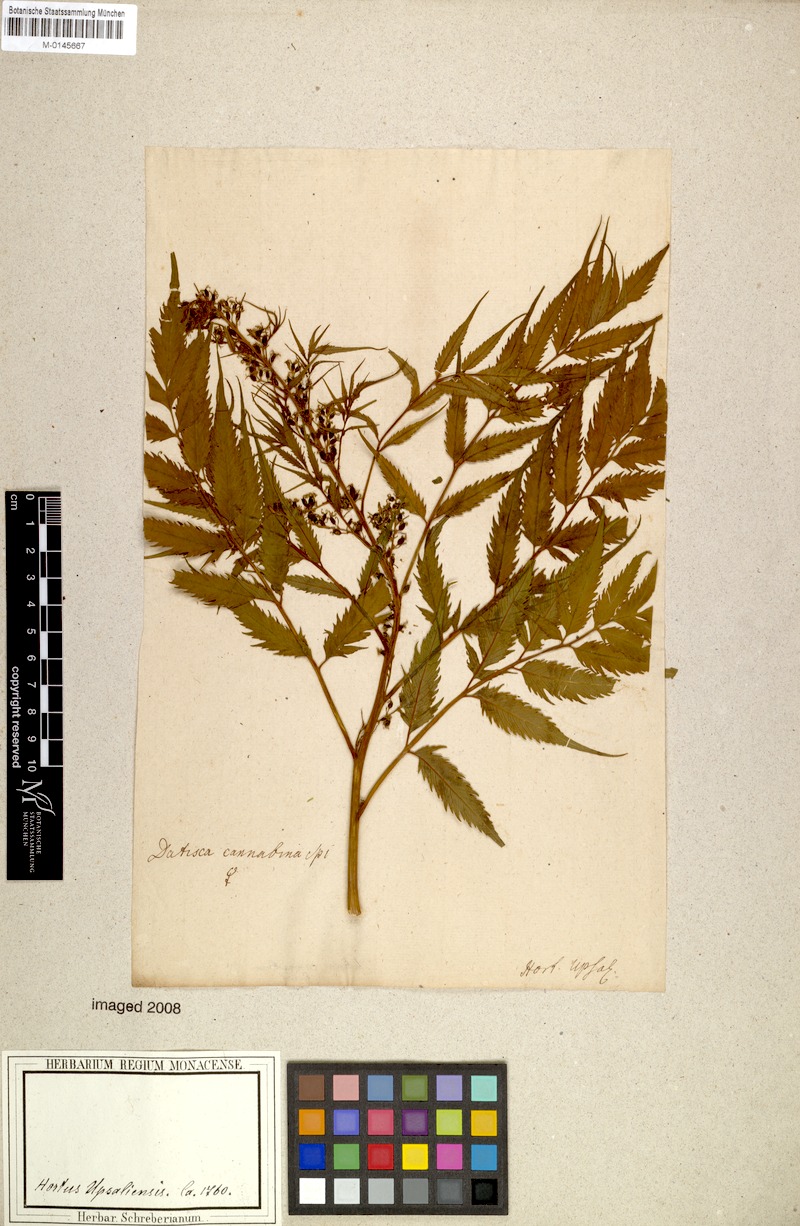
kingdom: Plantae
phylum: Tracheophyta
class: Magnoliopsida
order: Cucurbitales
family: Datiscaceae
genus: Datisca
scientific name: Datisca cannabina
